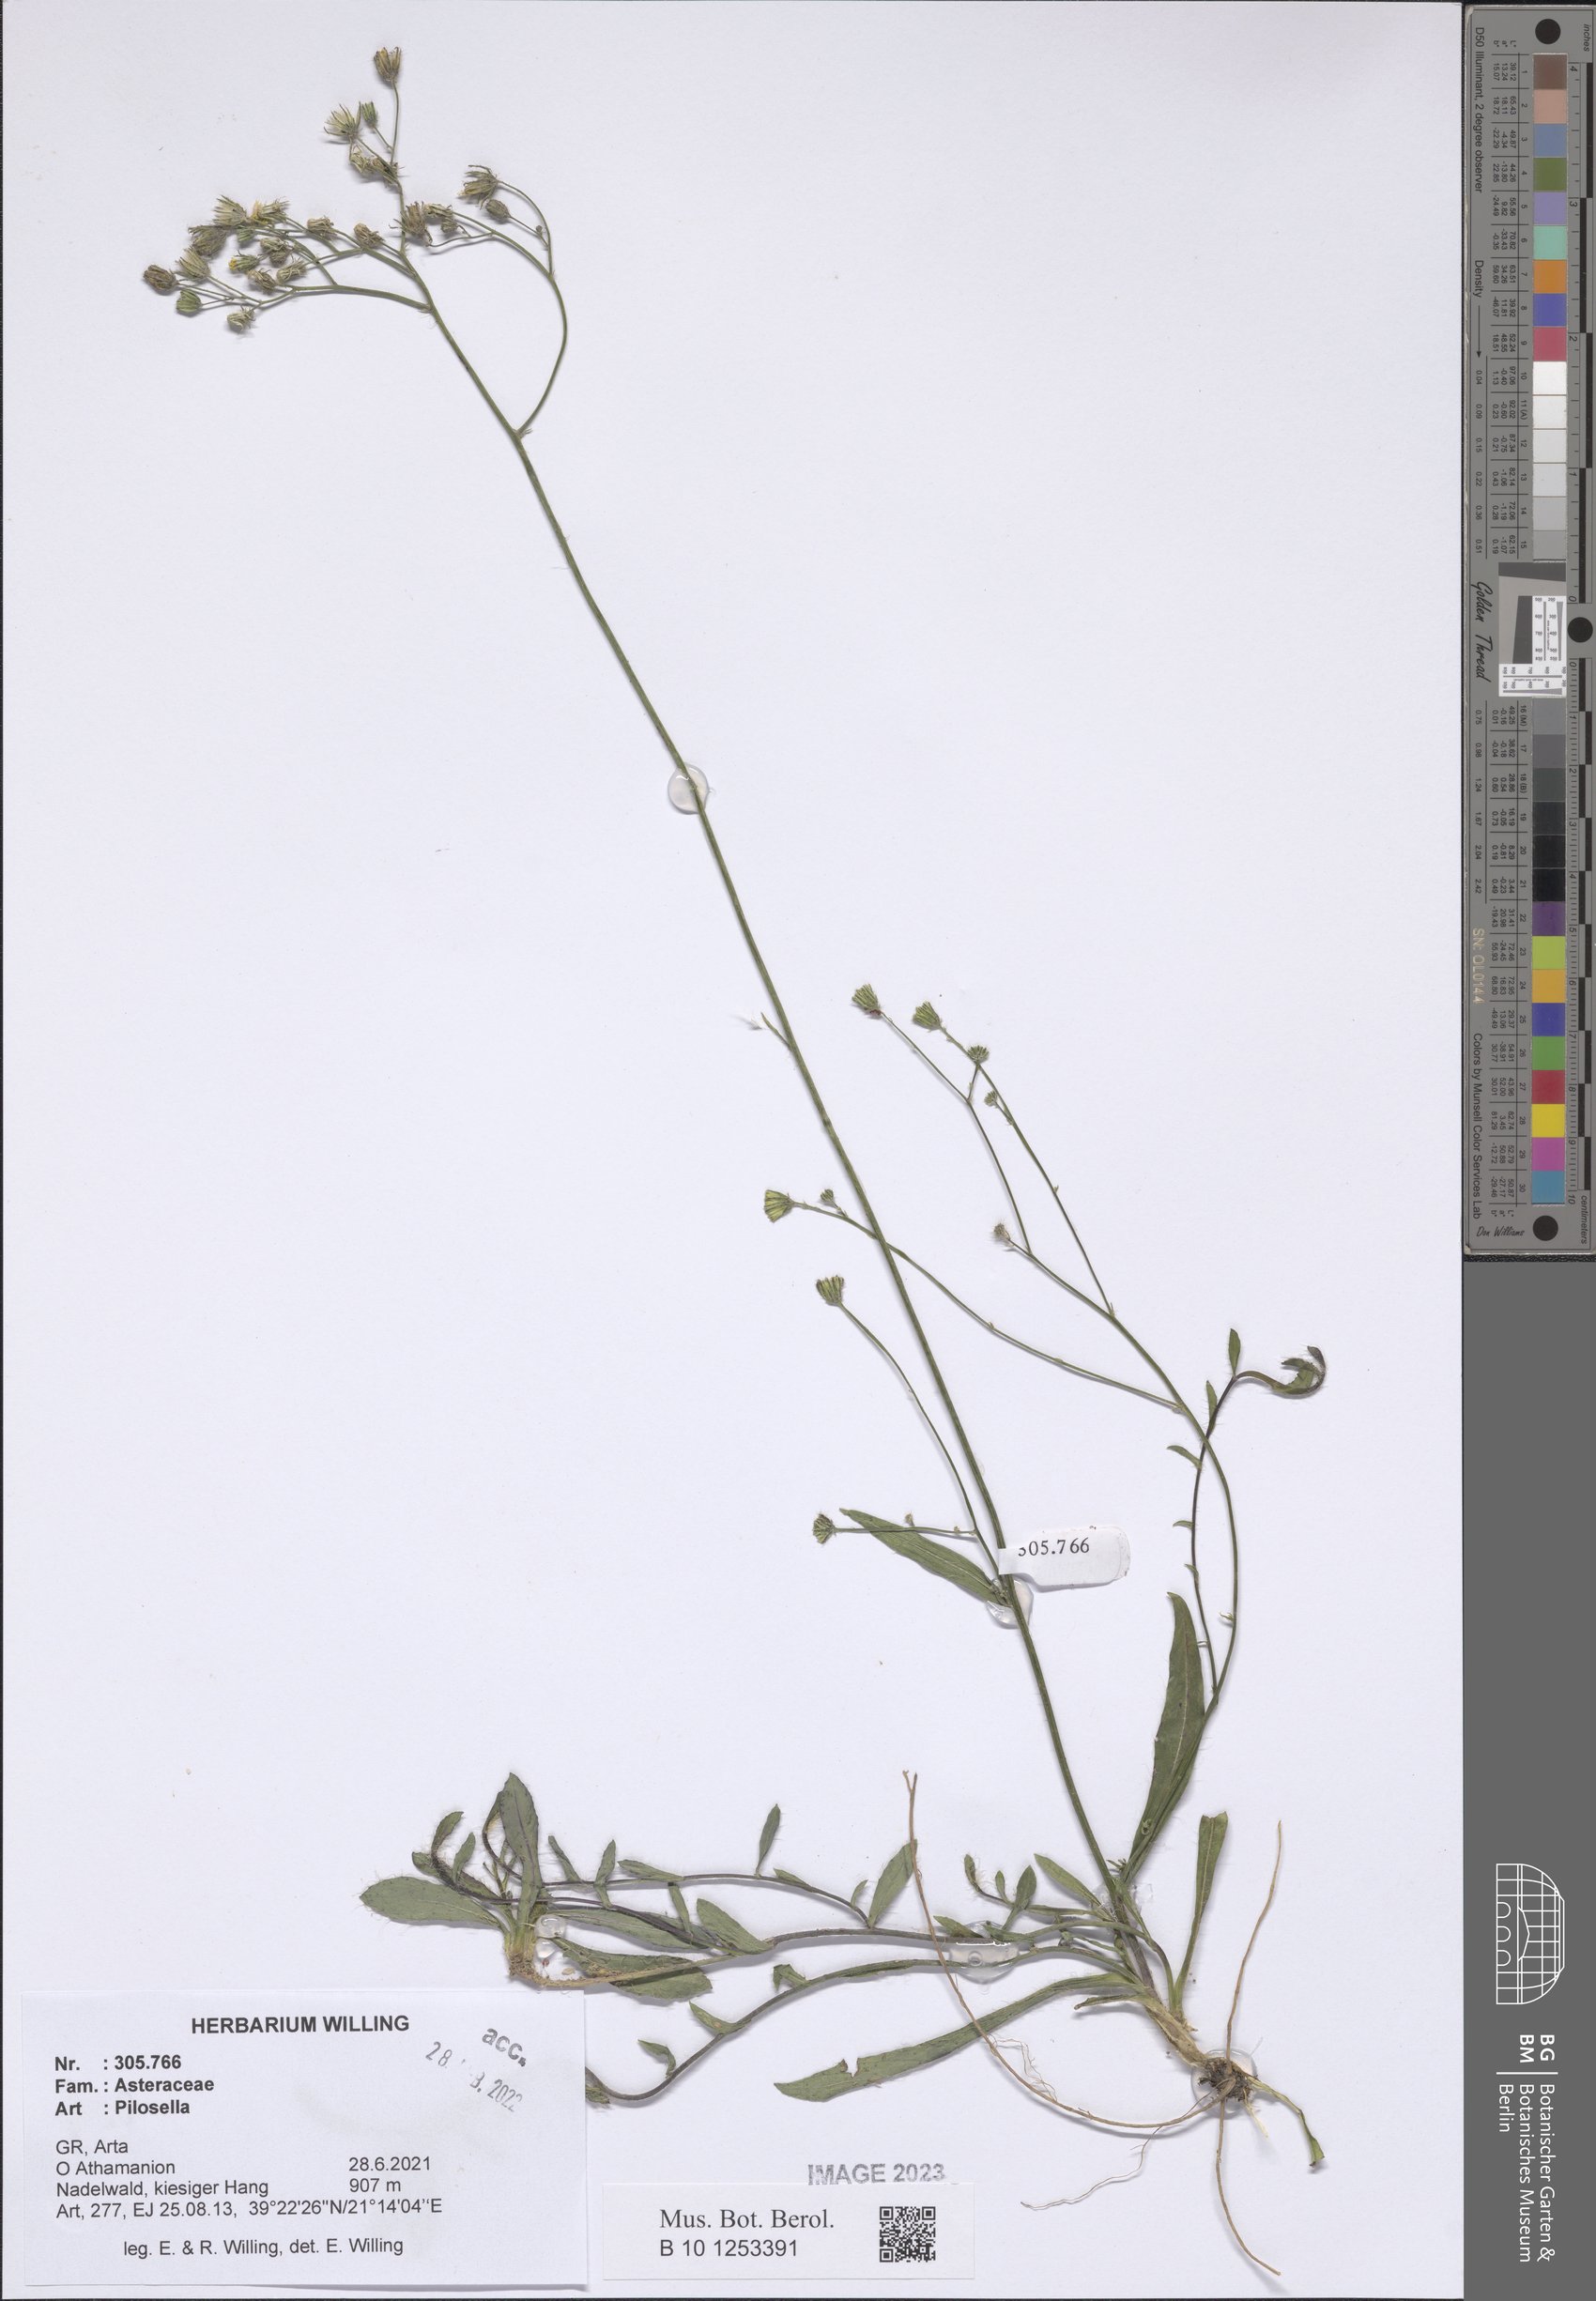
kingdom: Plantae
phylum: Tracheophyta
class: Magnoliopsida
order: Asterales
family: Asteraceae
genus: Pilosella
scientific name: Pilosella
